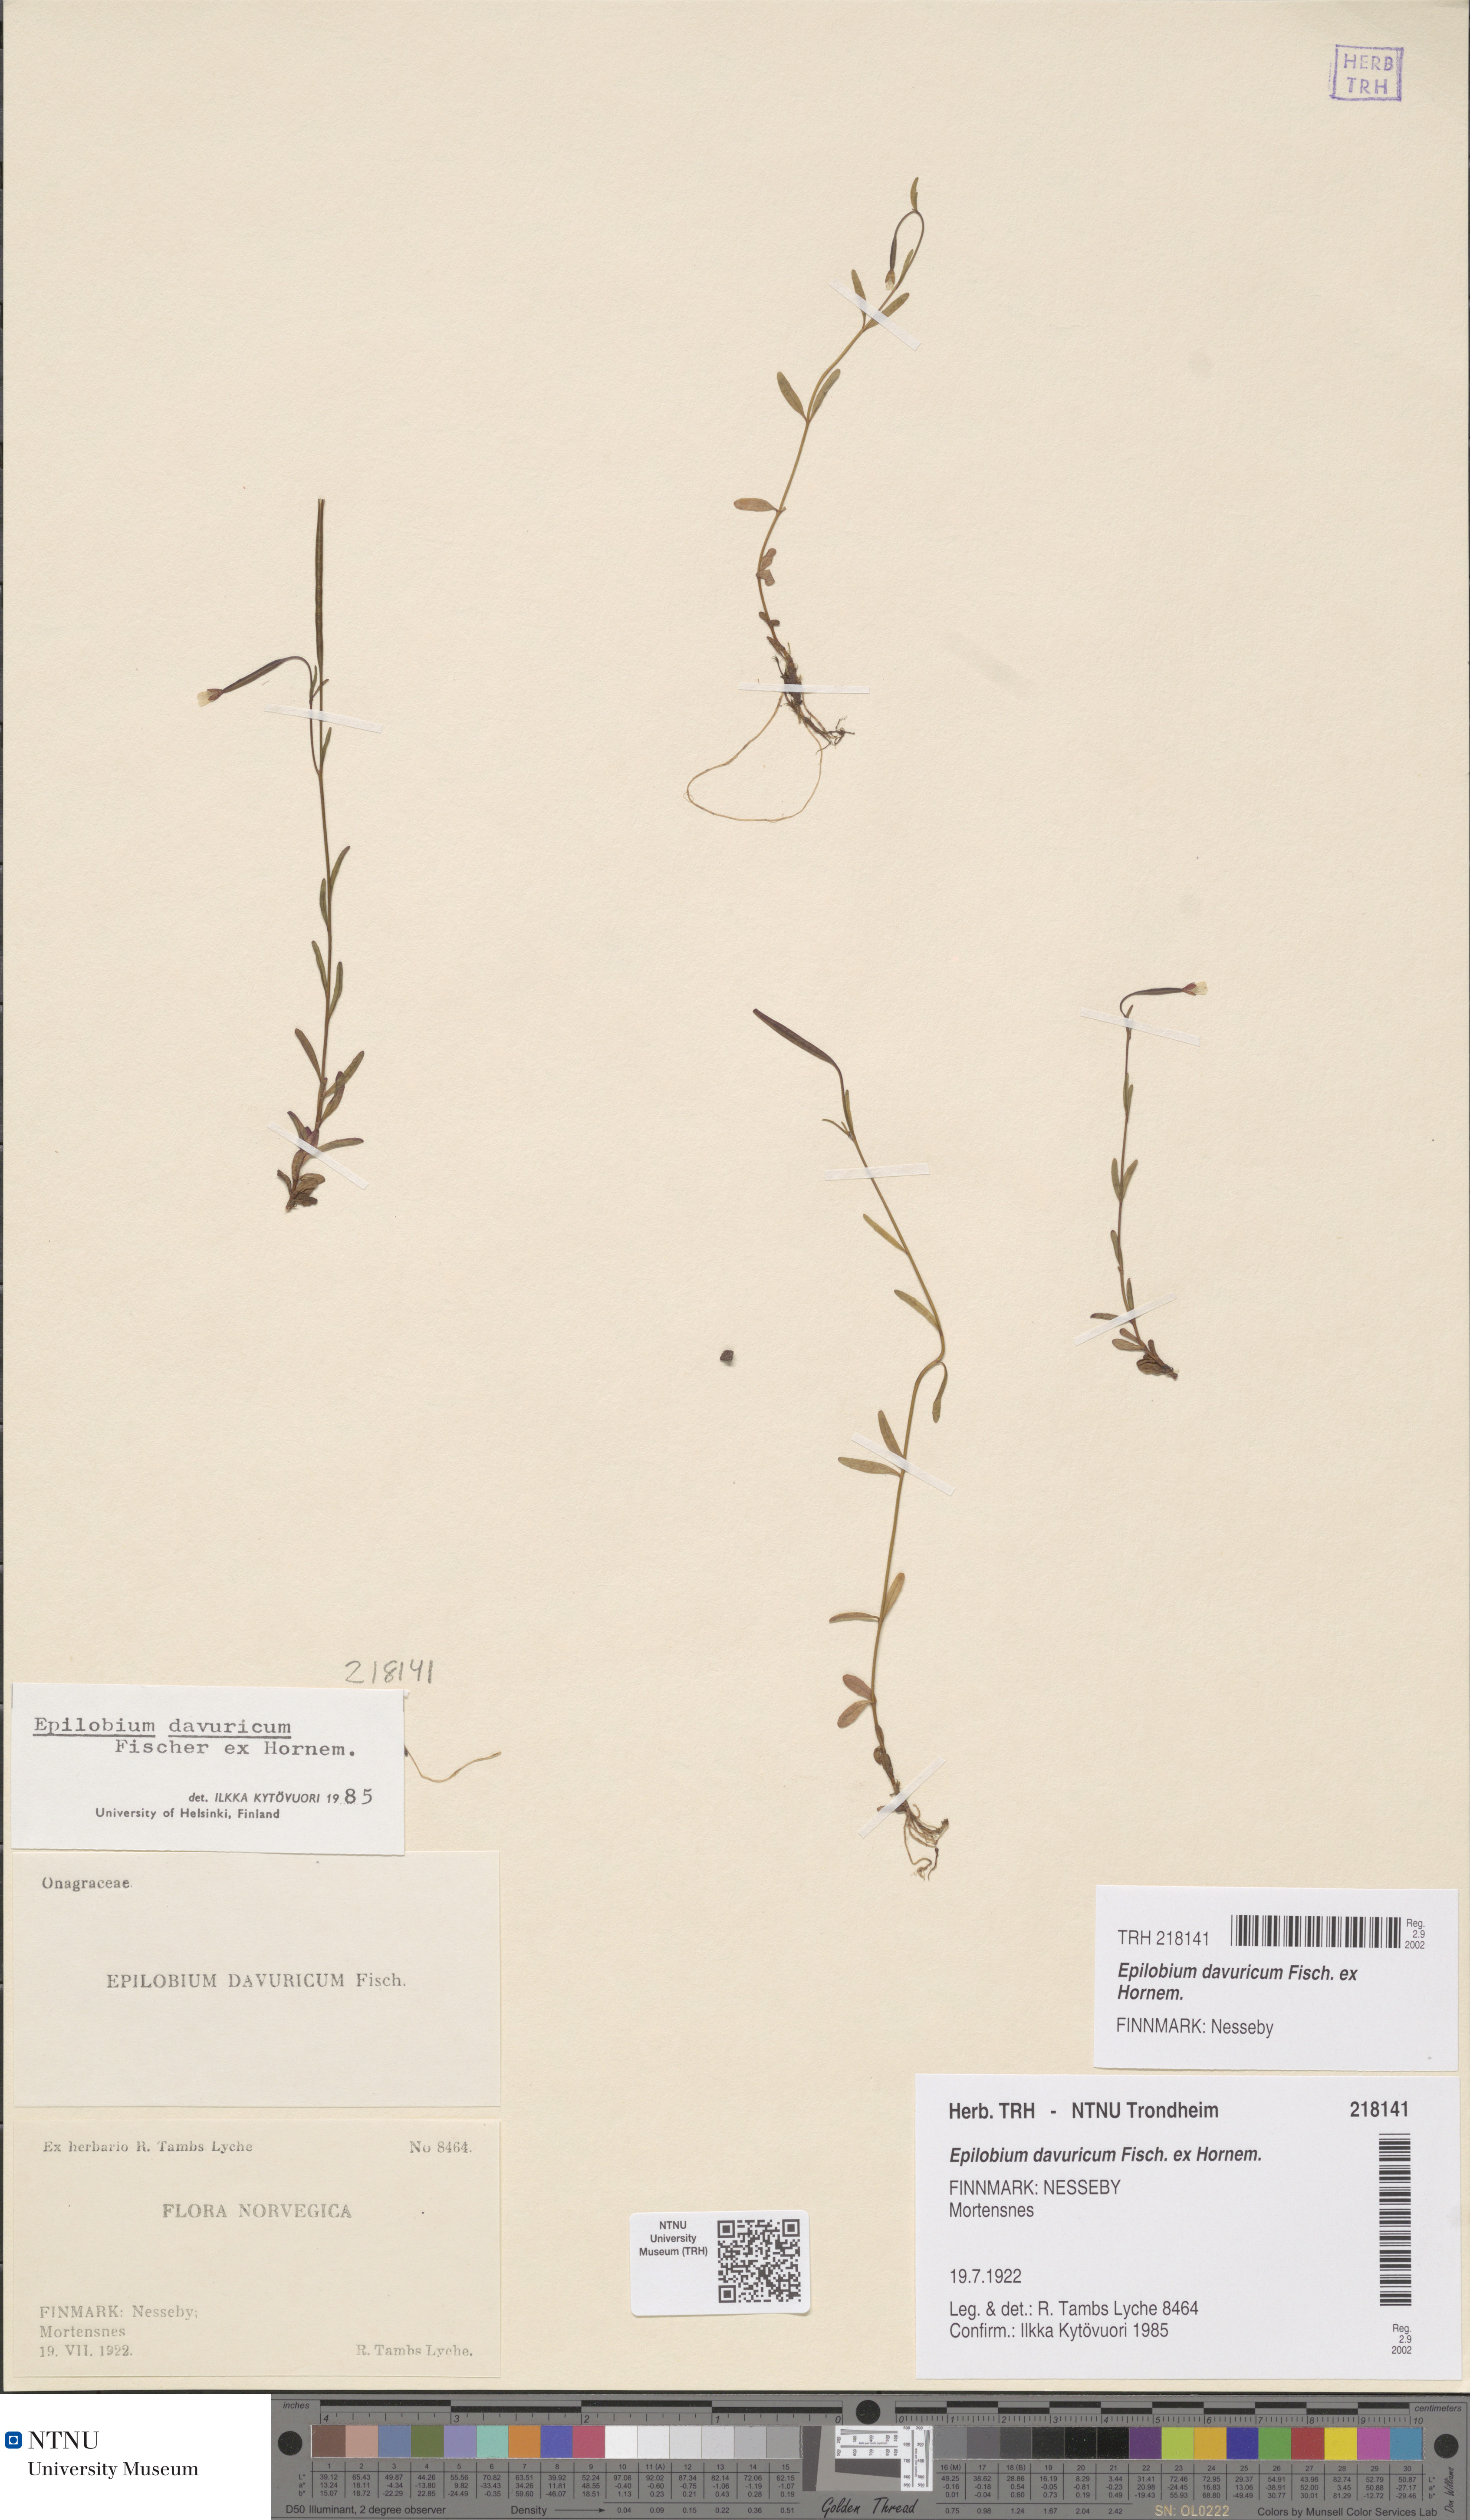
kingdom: Plantae
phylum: Tracheophyta
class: Magnoliopsida
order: Myrtales
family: Onagraceae
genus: Epilobium
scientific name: Epilobium davuricum
